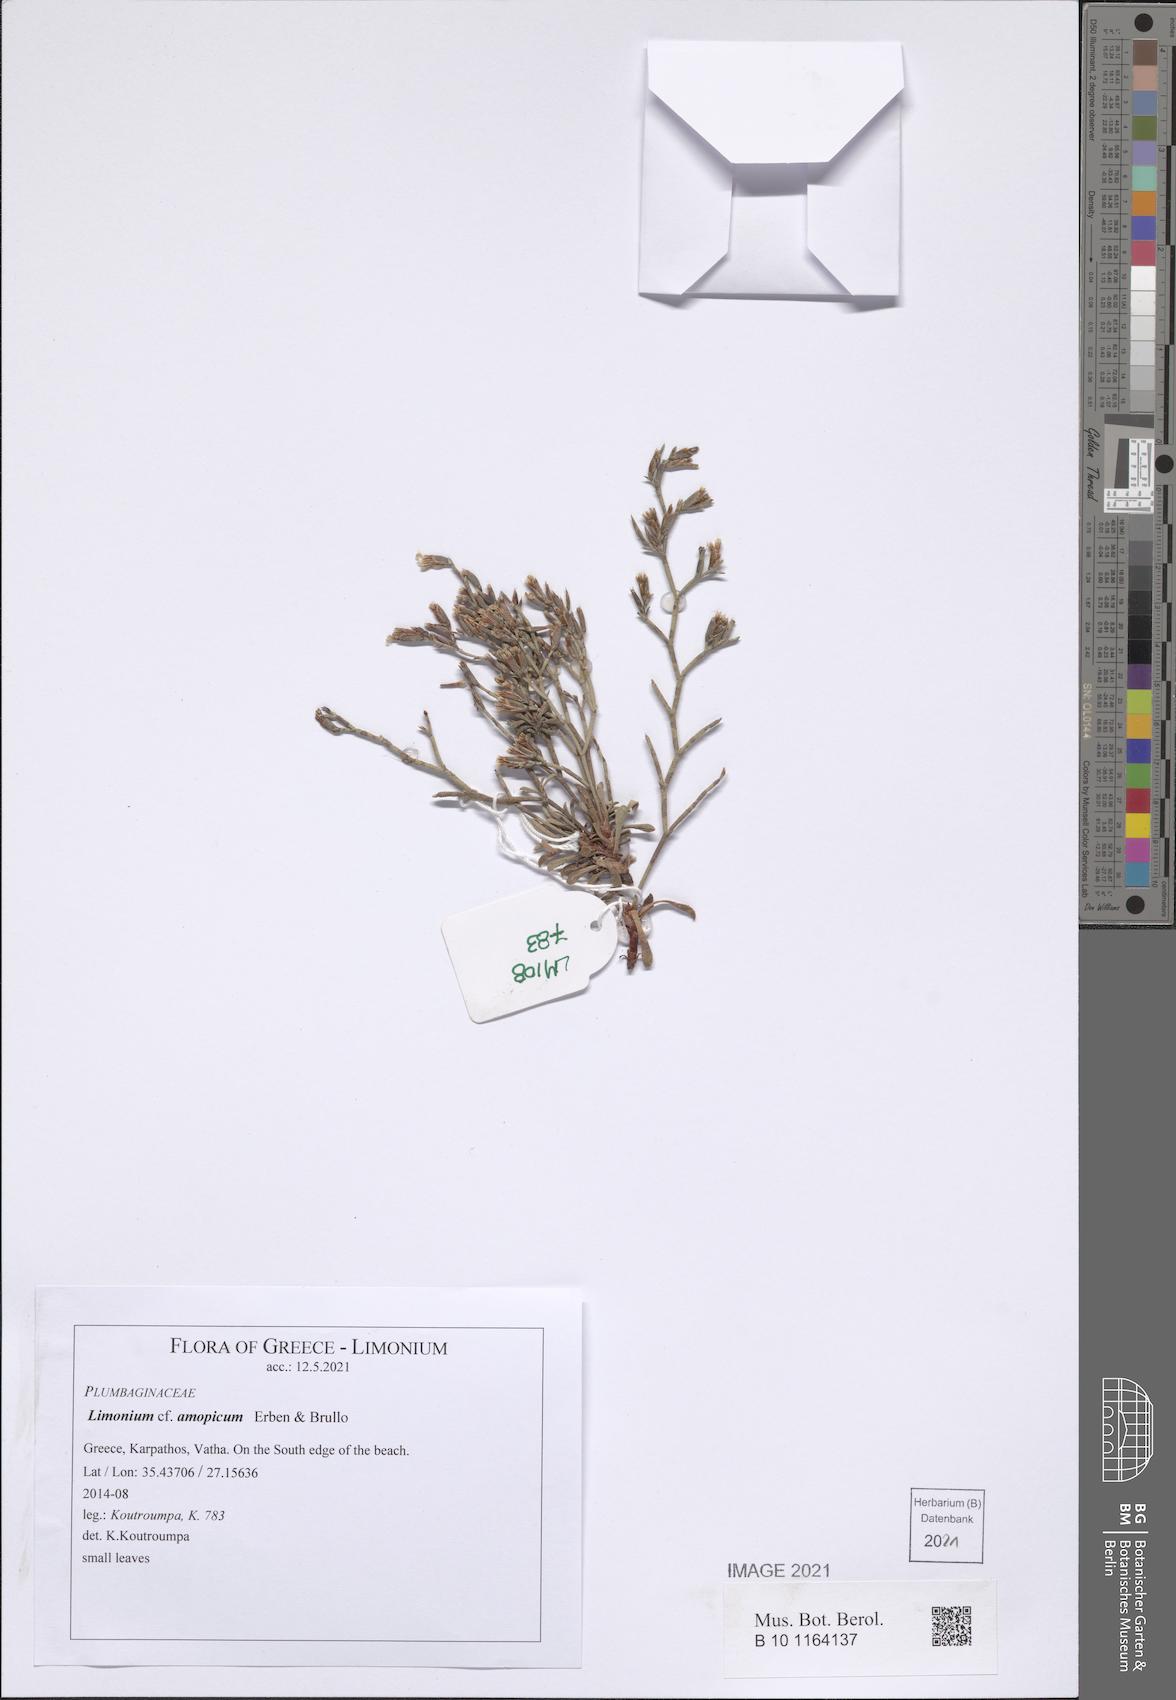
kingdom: Plantae
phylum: Tracheophyta
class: Magnoliopsida
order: Caryophyllales
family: Plumbaginaceae
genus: Limonium
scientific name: Limonium amopicum
